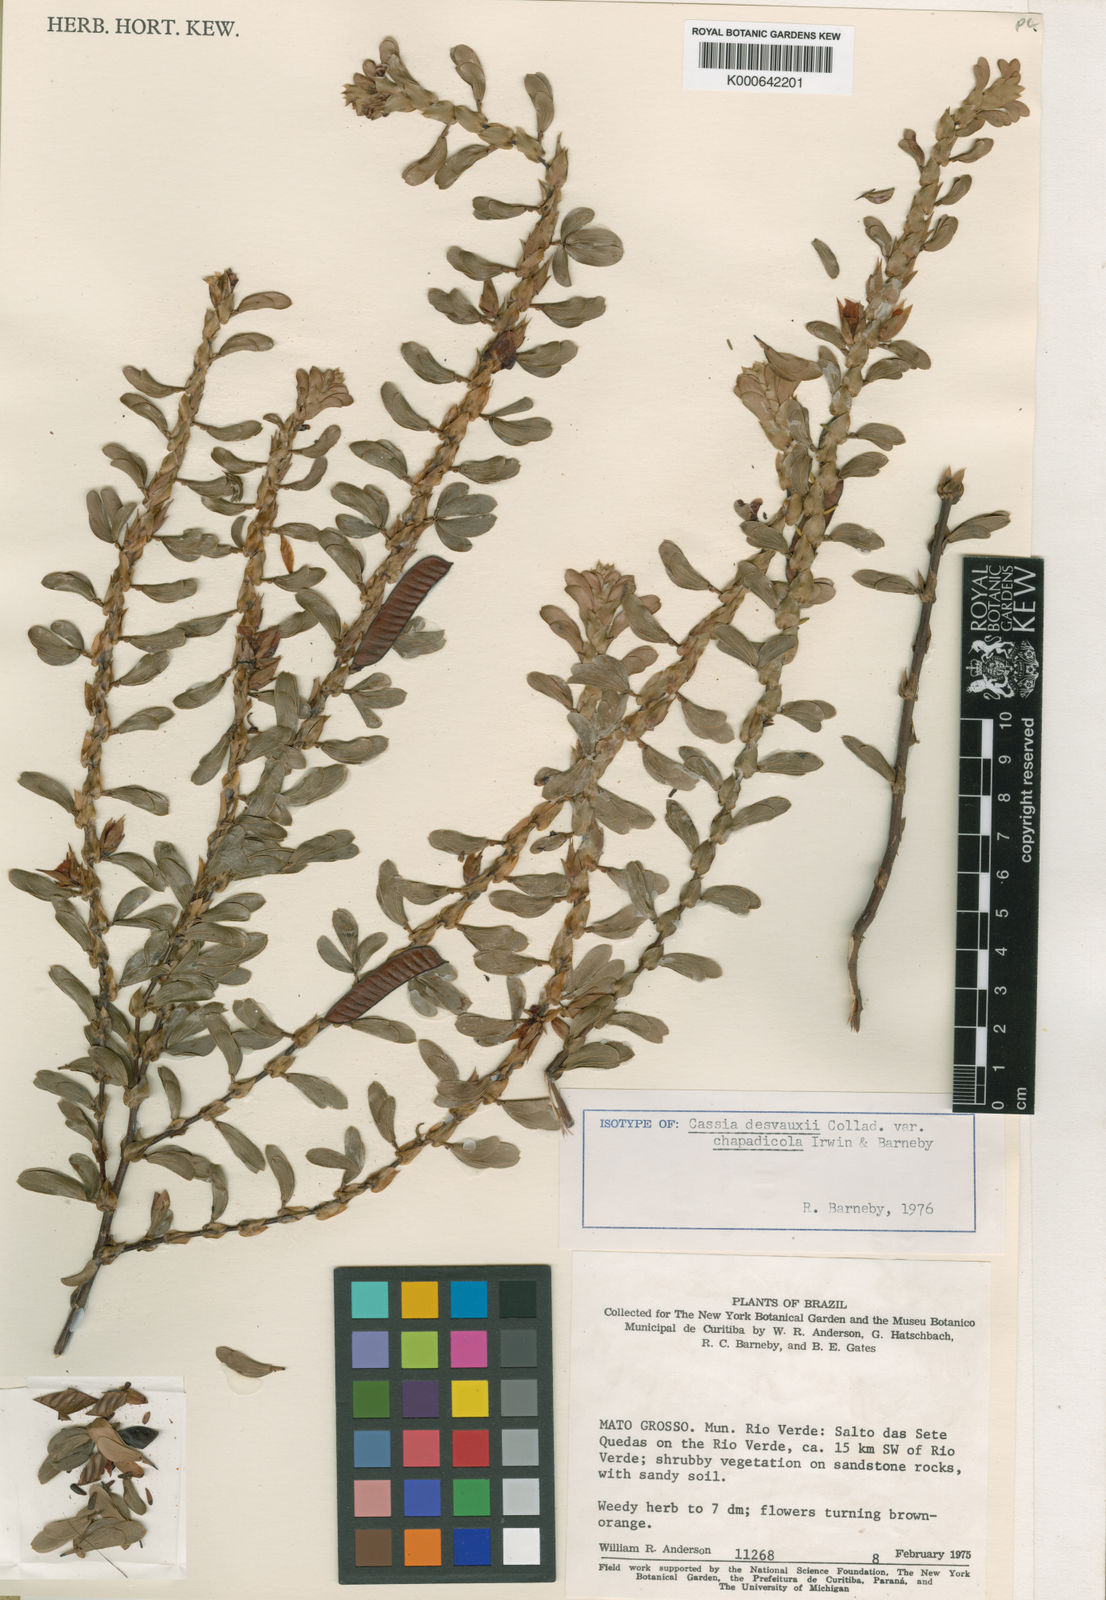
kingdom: Plantae
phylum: Tracheophyta
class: Magnoliopsida
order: Fabales
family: Fabaceae
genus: Chamaecrista
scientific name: Chamaecrista desvauxii
